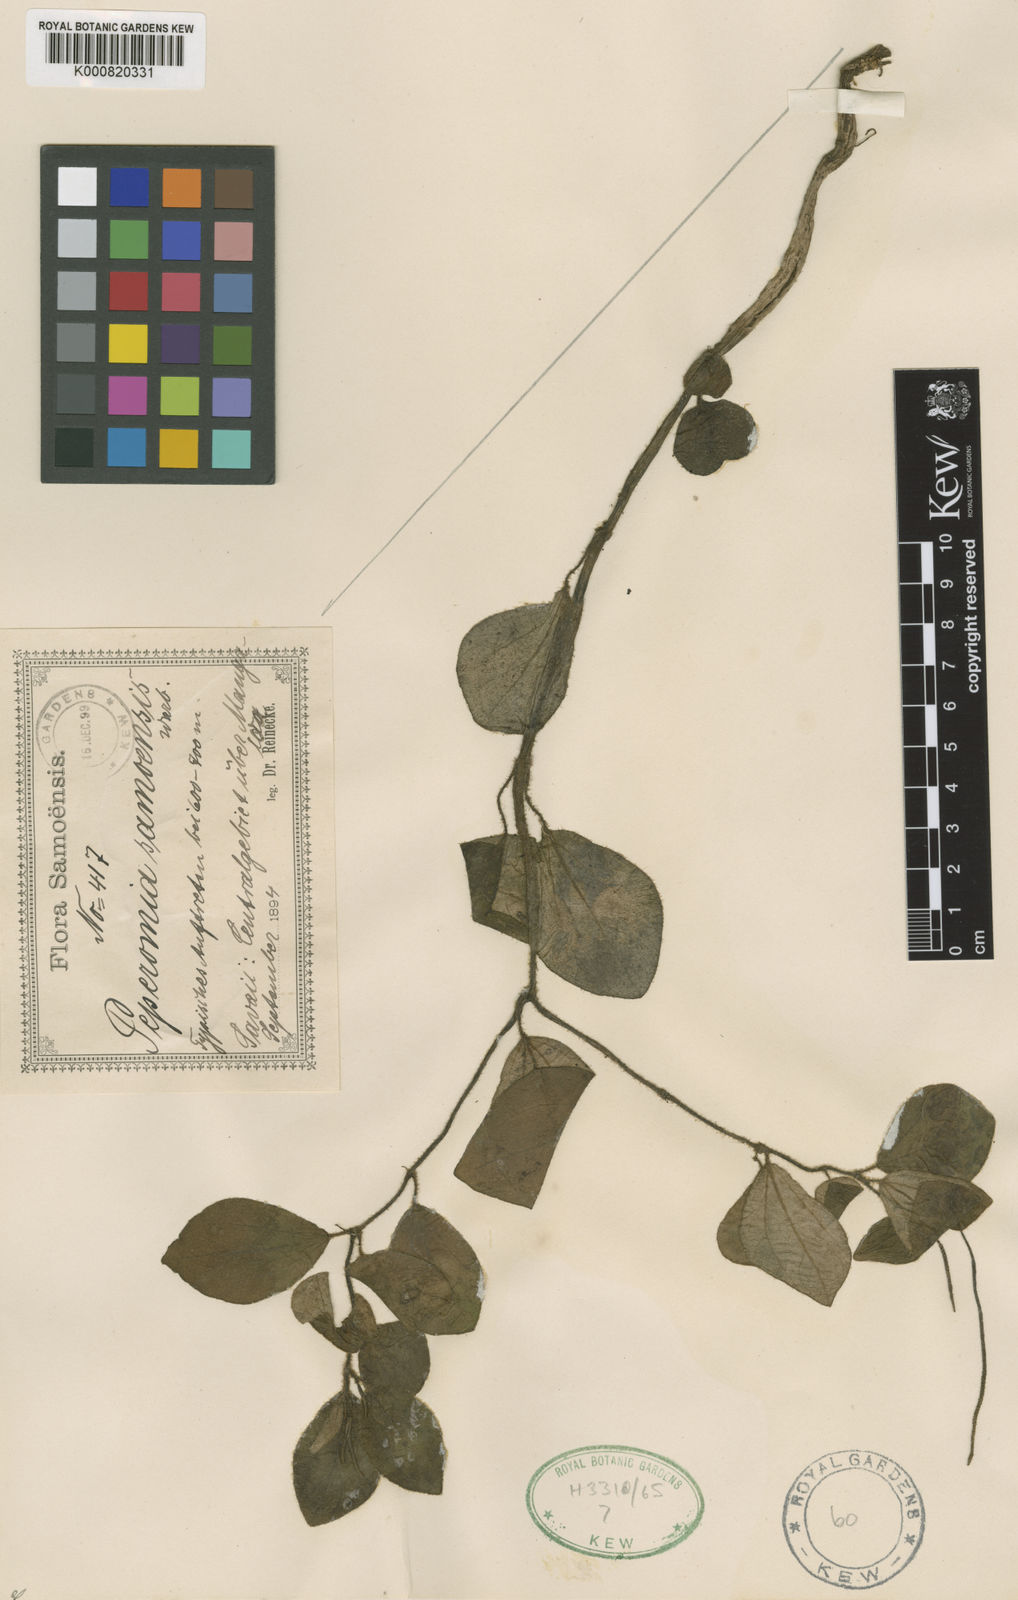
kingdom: Plantae
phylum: Tracheophyta
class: Magnoliopsida
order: Piperales
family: Piperaceae
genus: Peperomia
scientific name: Peperomia samoensis
